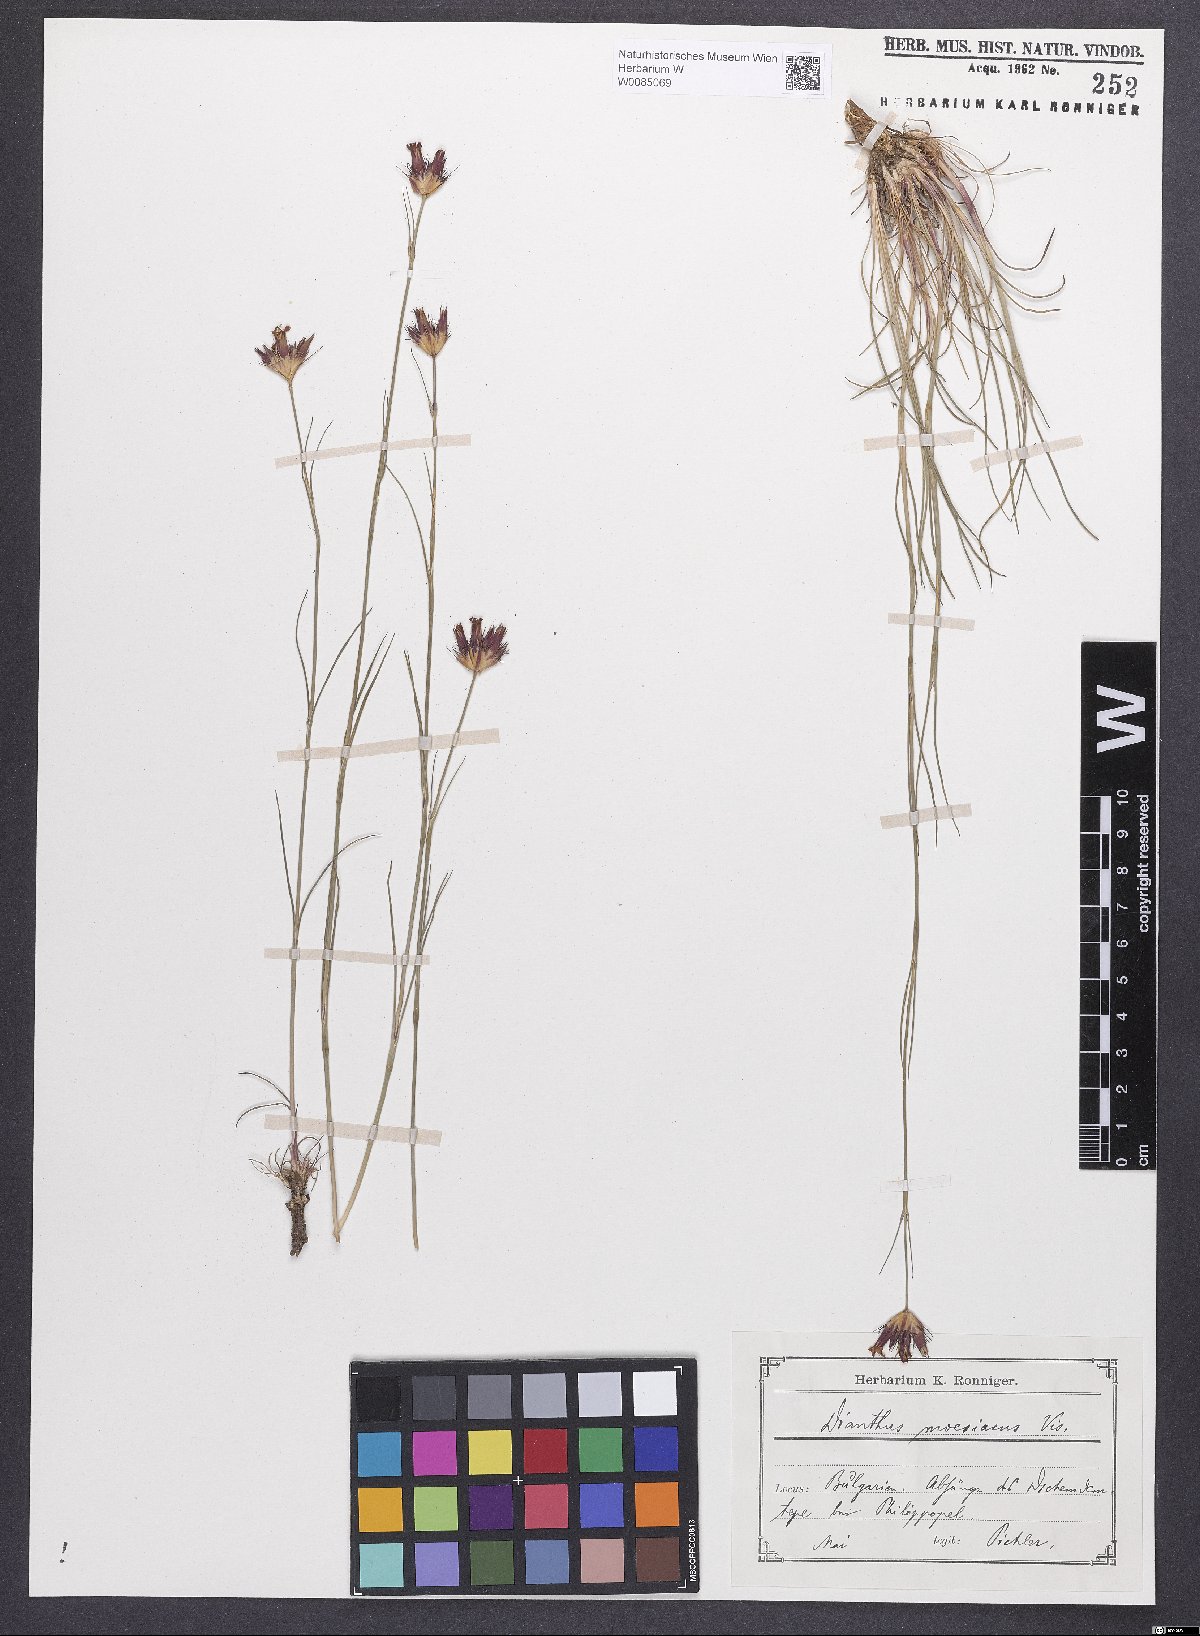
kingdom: Plantae
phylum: Tracheophyta
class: Magnoliopsida
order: Caryophyllales
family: Caryophyllaceae
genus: Dianthus
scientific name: Dianthus moesiacus
